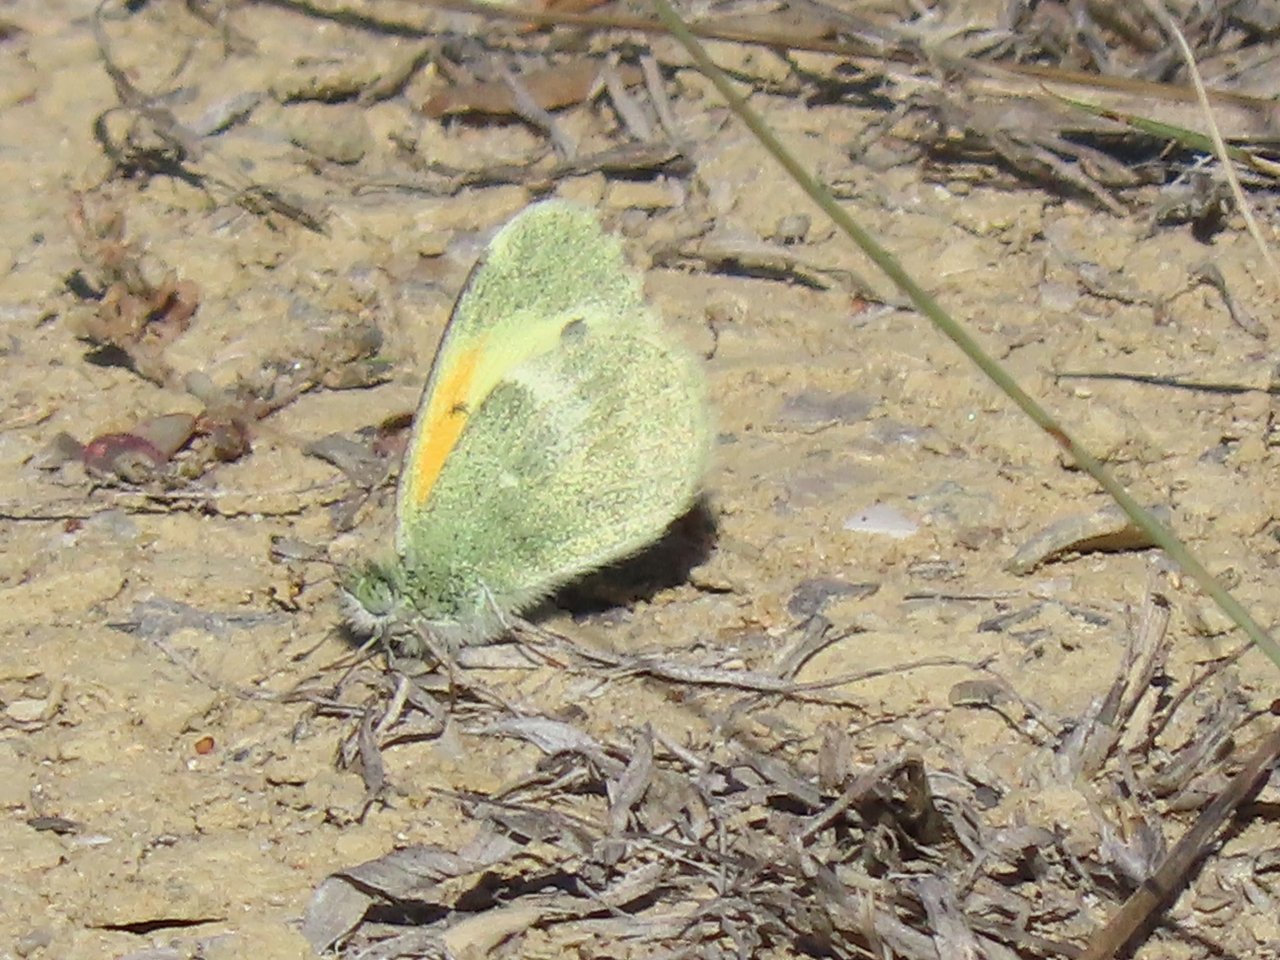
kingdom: Animalia
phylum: Arthropoda
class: Insecta
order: Lepidoptera
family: Pieridae
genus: Nathalis
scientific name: Nathalis iole
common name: Dainty Sulphur
